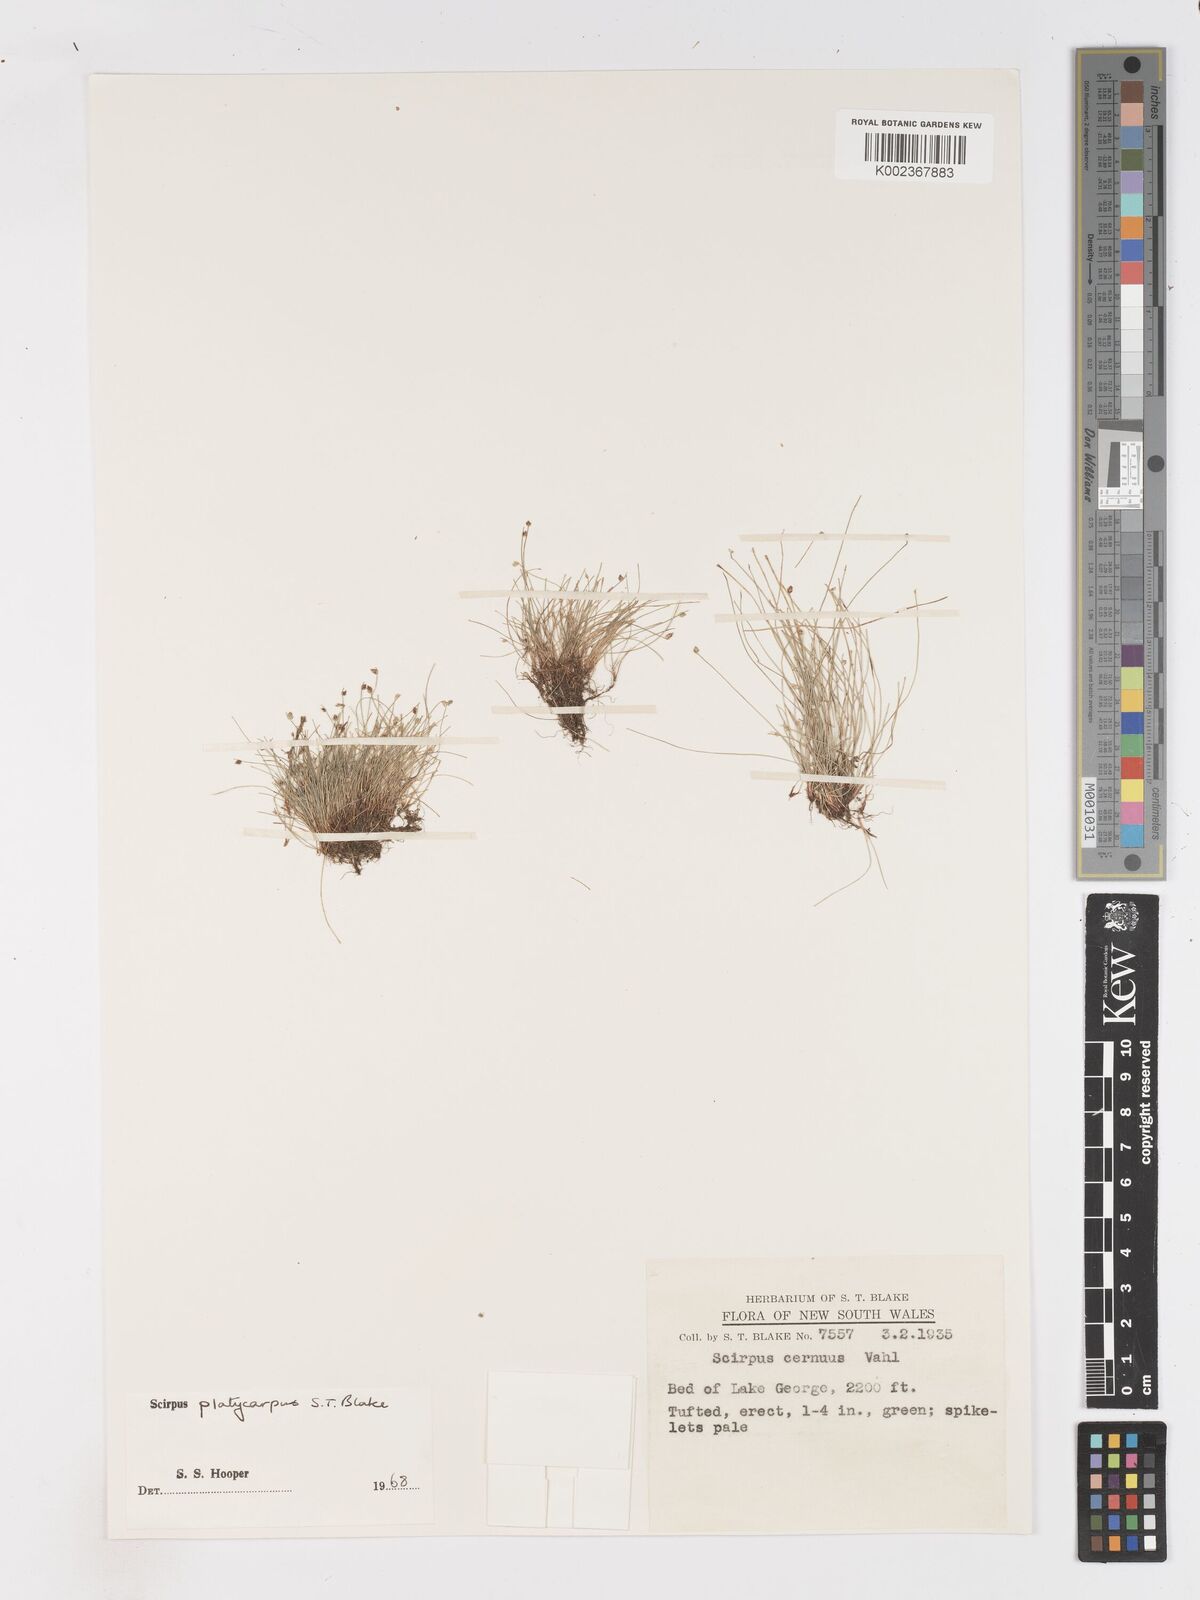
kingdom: Plantae
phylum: Tracheophyta
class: Liliopsida
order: Poales
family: Cyperaceae
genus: Isolepis
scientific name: Isolepis cernua
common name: Slender club-rush
